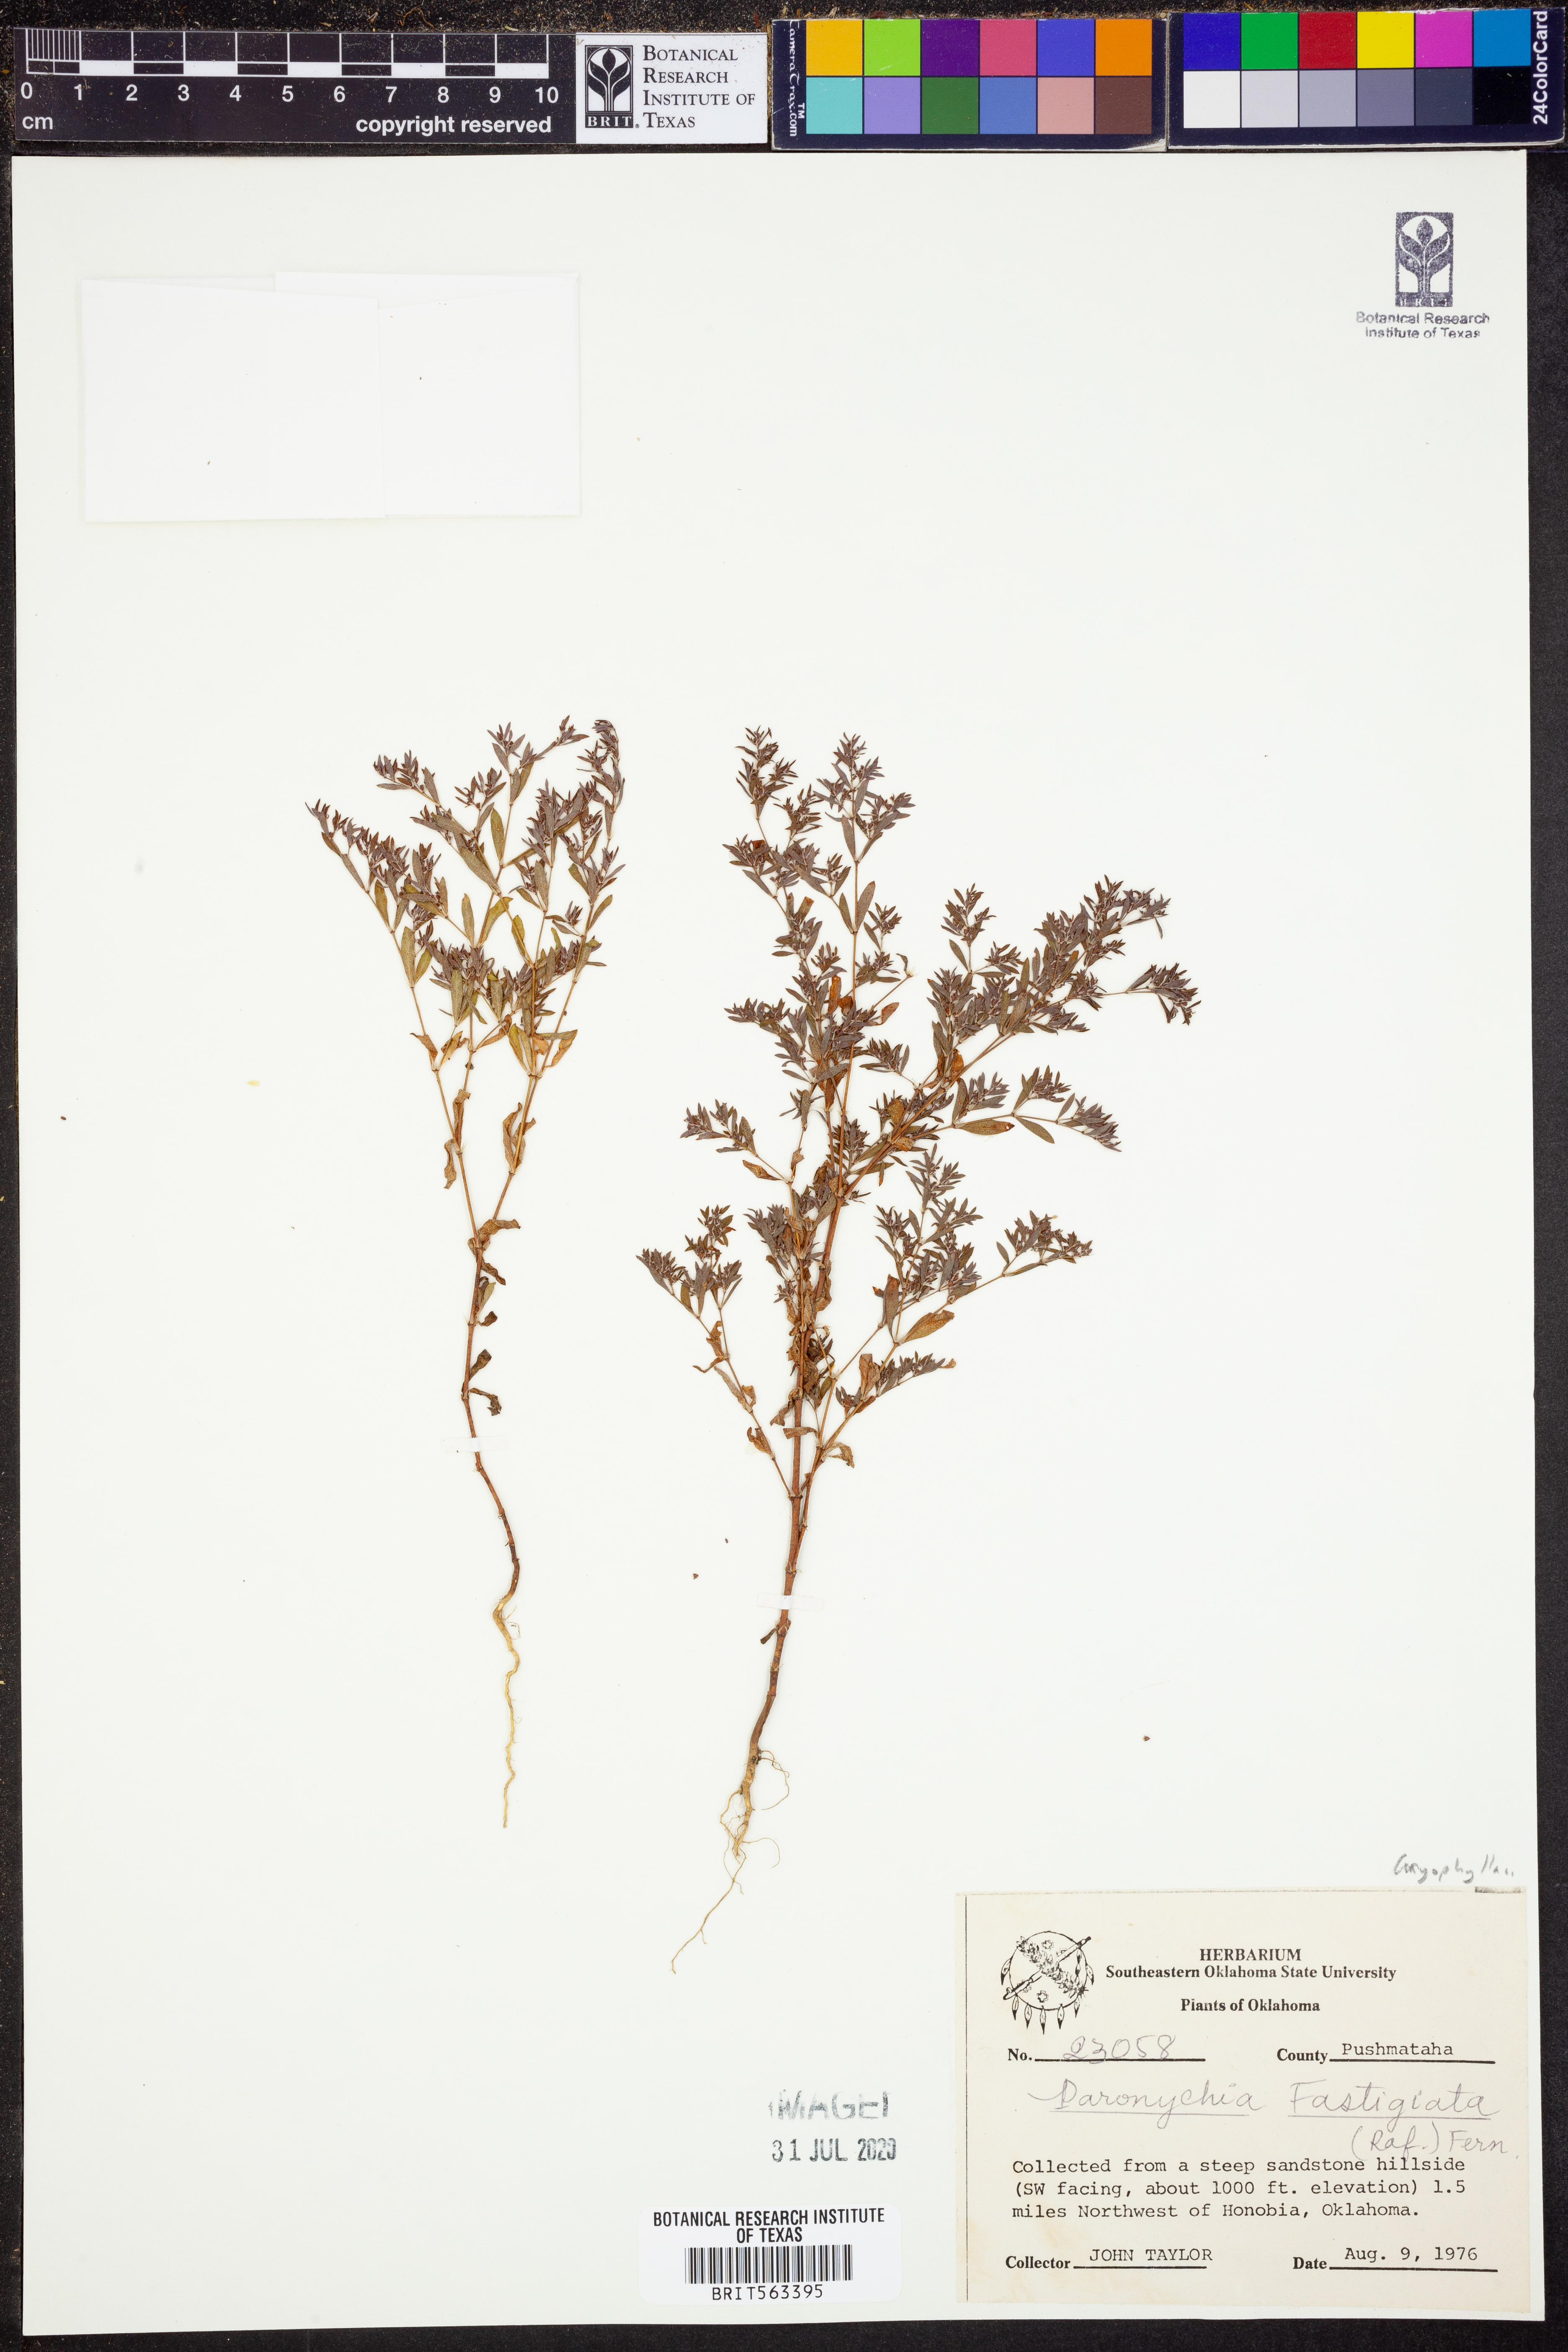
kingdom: Plantae
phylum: Tracheophyta
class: Magnoliopsida
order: Caryophyllales
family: Caryophyllaceae
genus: Paronychia
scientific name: Paronychia fastigiata
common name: Branching forked whitlow-wort
